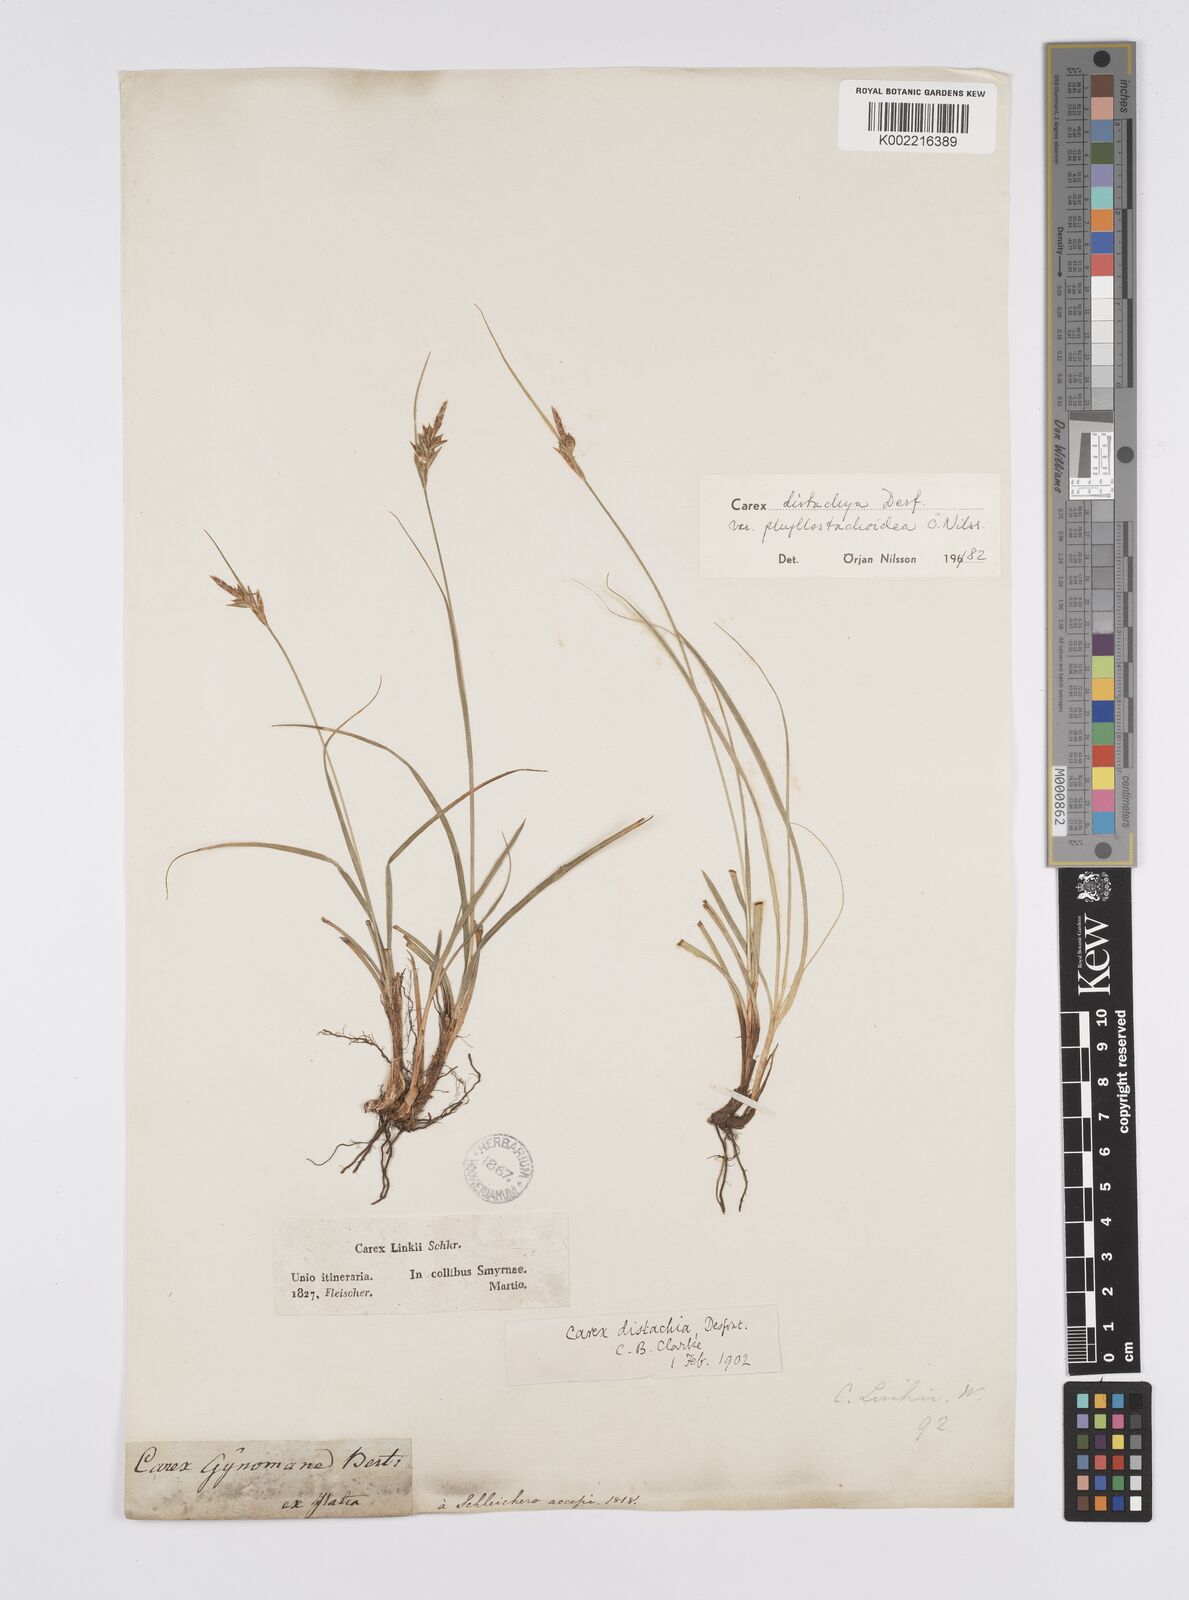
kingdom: Plantae
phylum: Tracheophyta
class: Liliopsida
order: Poales
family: Cyperaceae
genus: Carex
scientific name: Carex distachya
